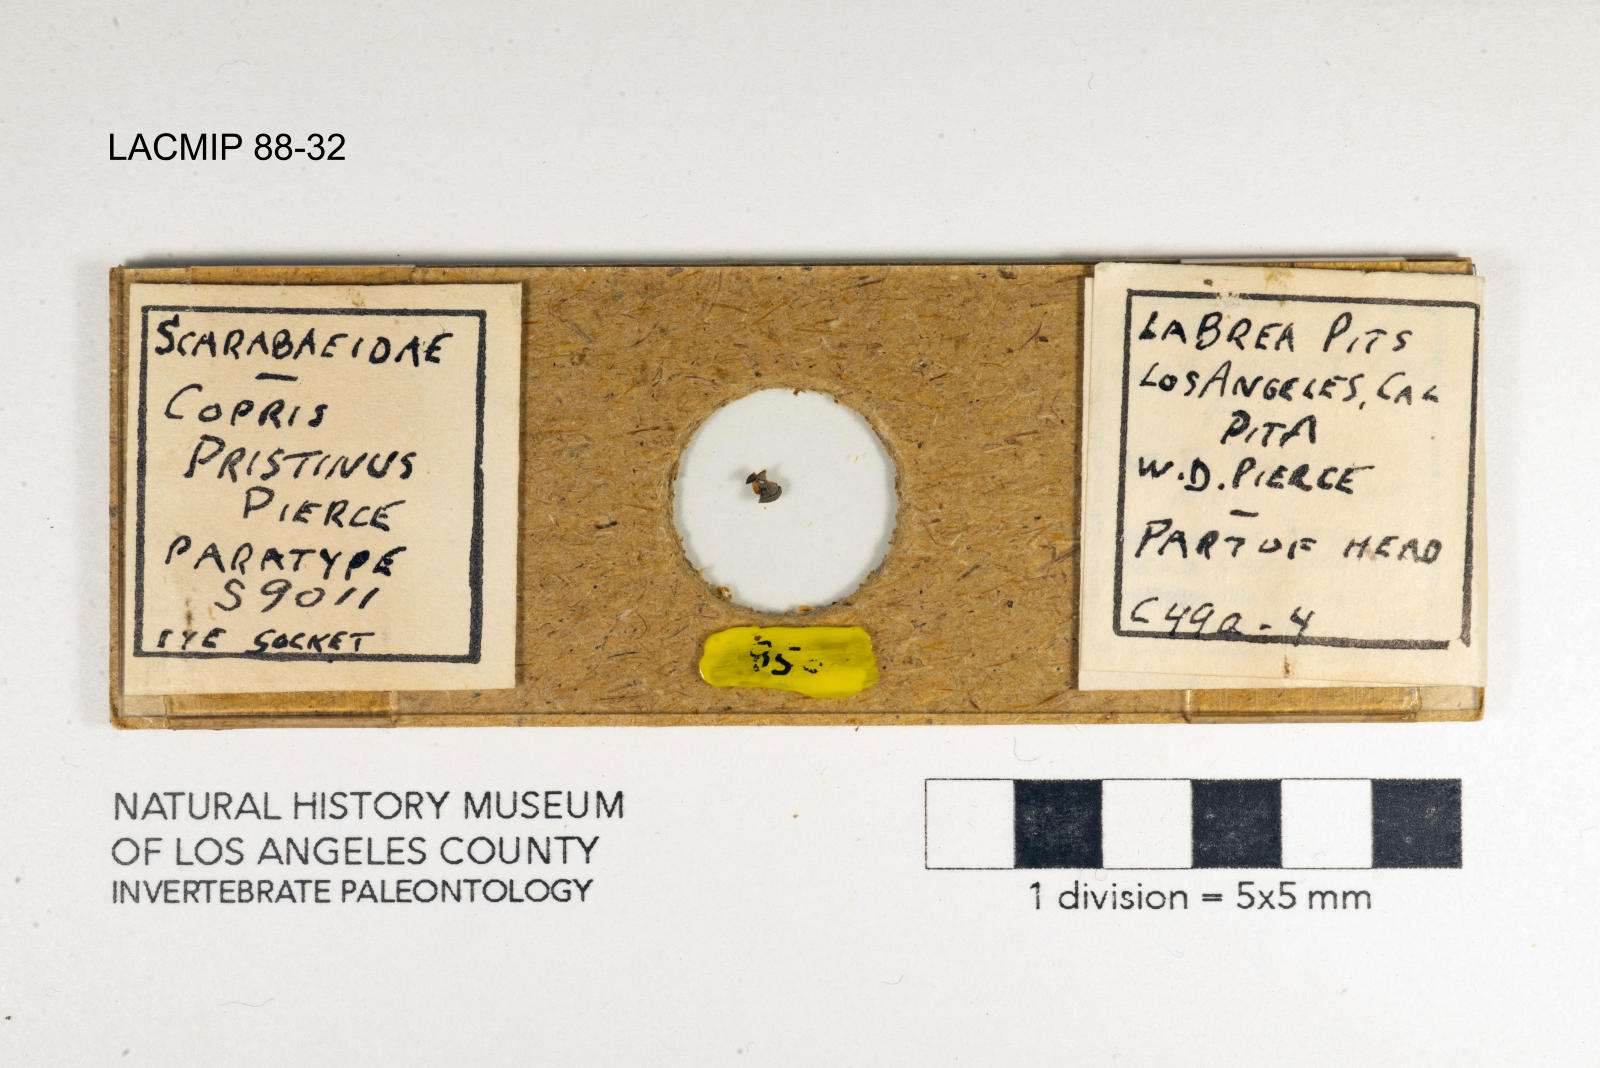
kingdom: Animalia
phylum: Arthropoda
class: Insecta
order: Coleoptera
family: Scarabaeidae
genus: Copris
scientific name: Copris pristinus
